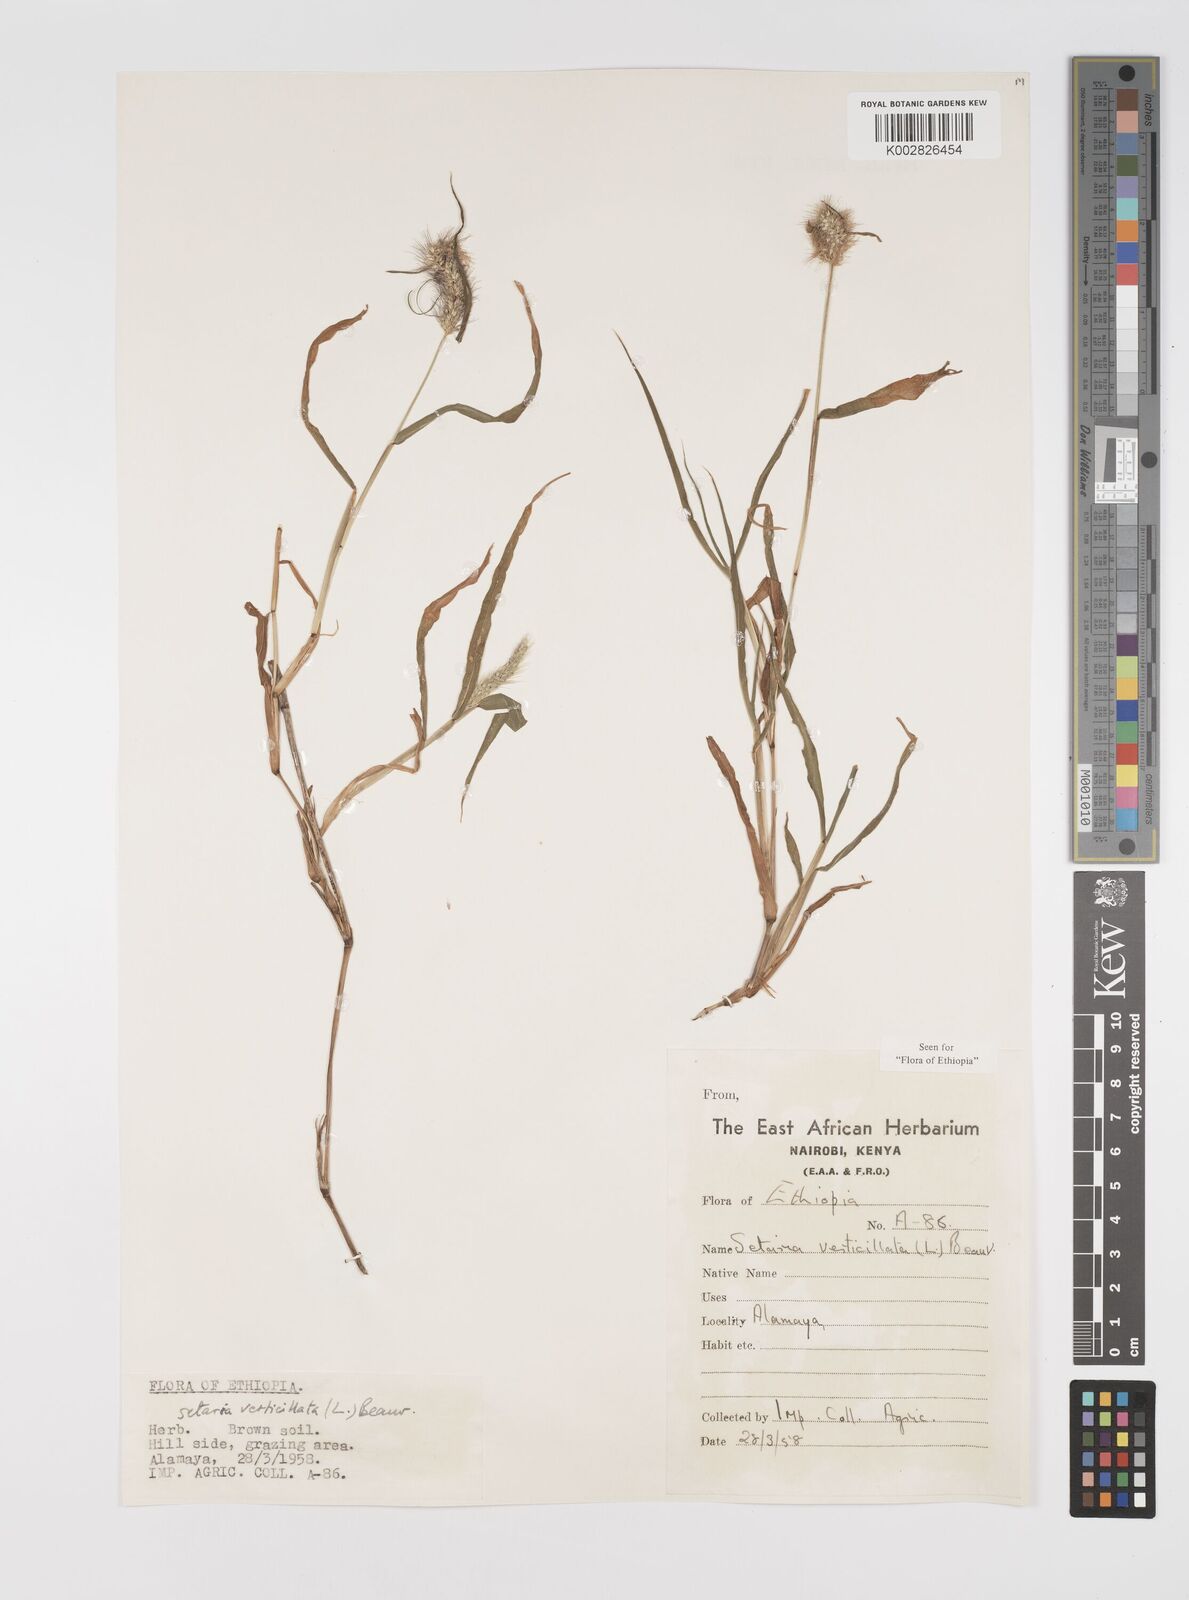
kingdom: Plantae
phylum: Tracheophyta
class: Liliopsida
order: Poales
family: Poaceae
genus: Setaria
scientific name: Setaria verticillata
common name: Hooked bristlegrass
